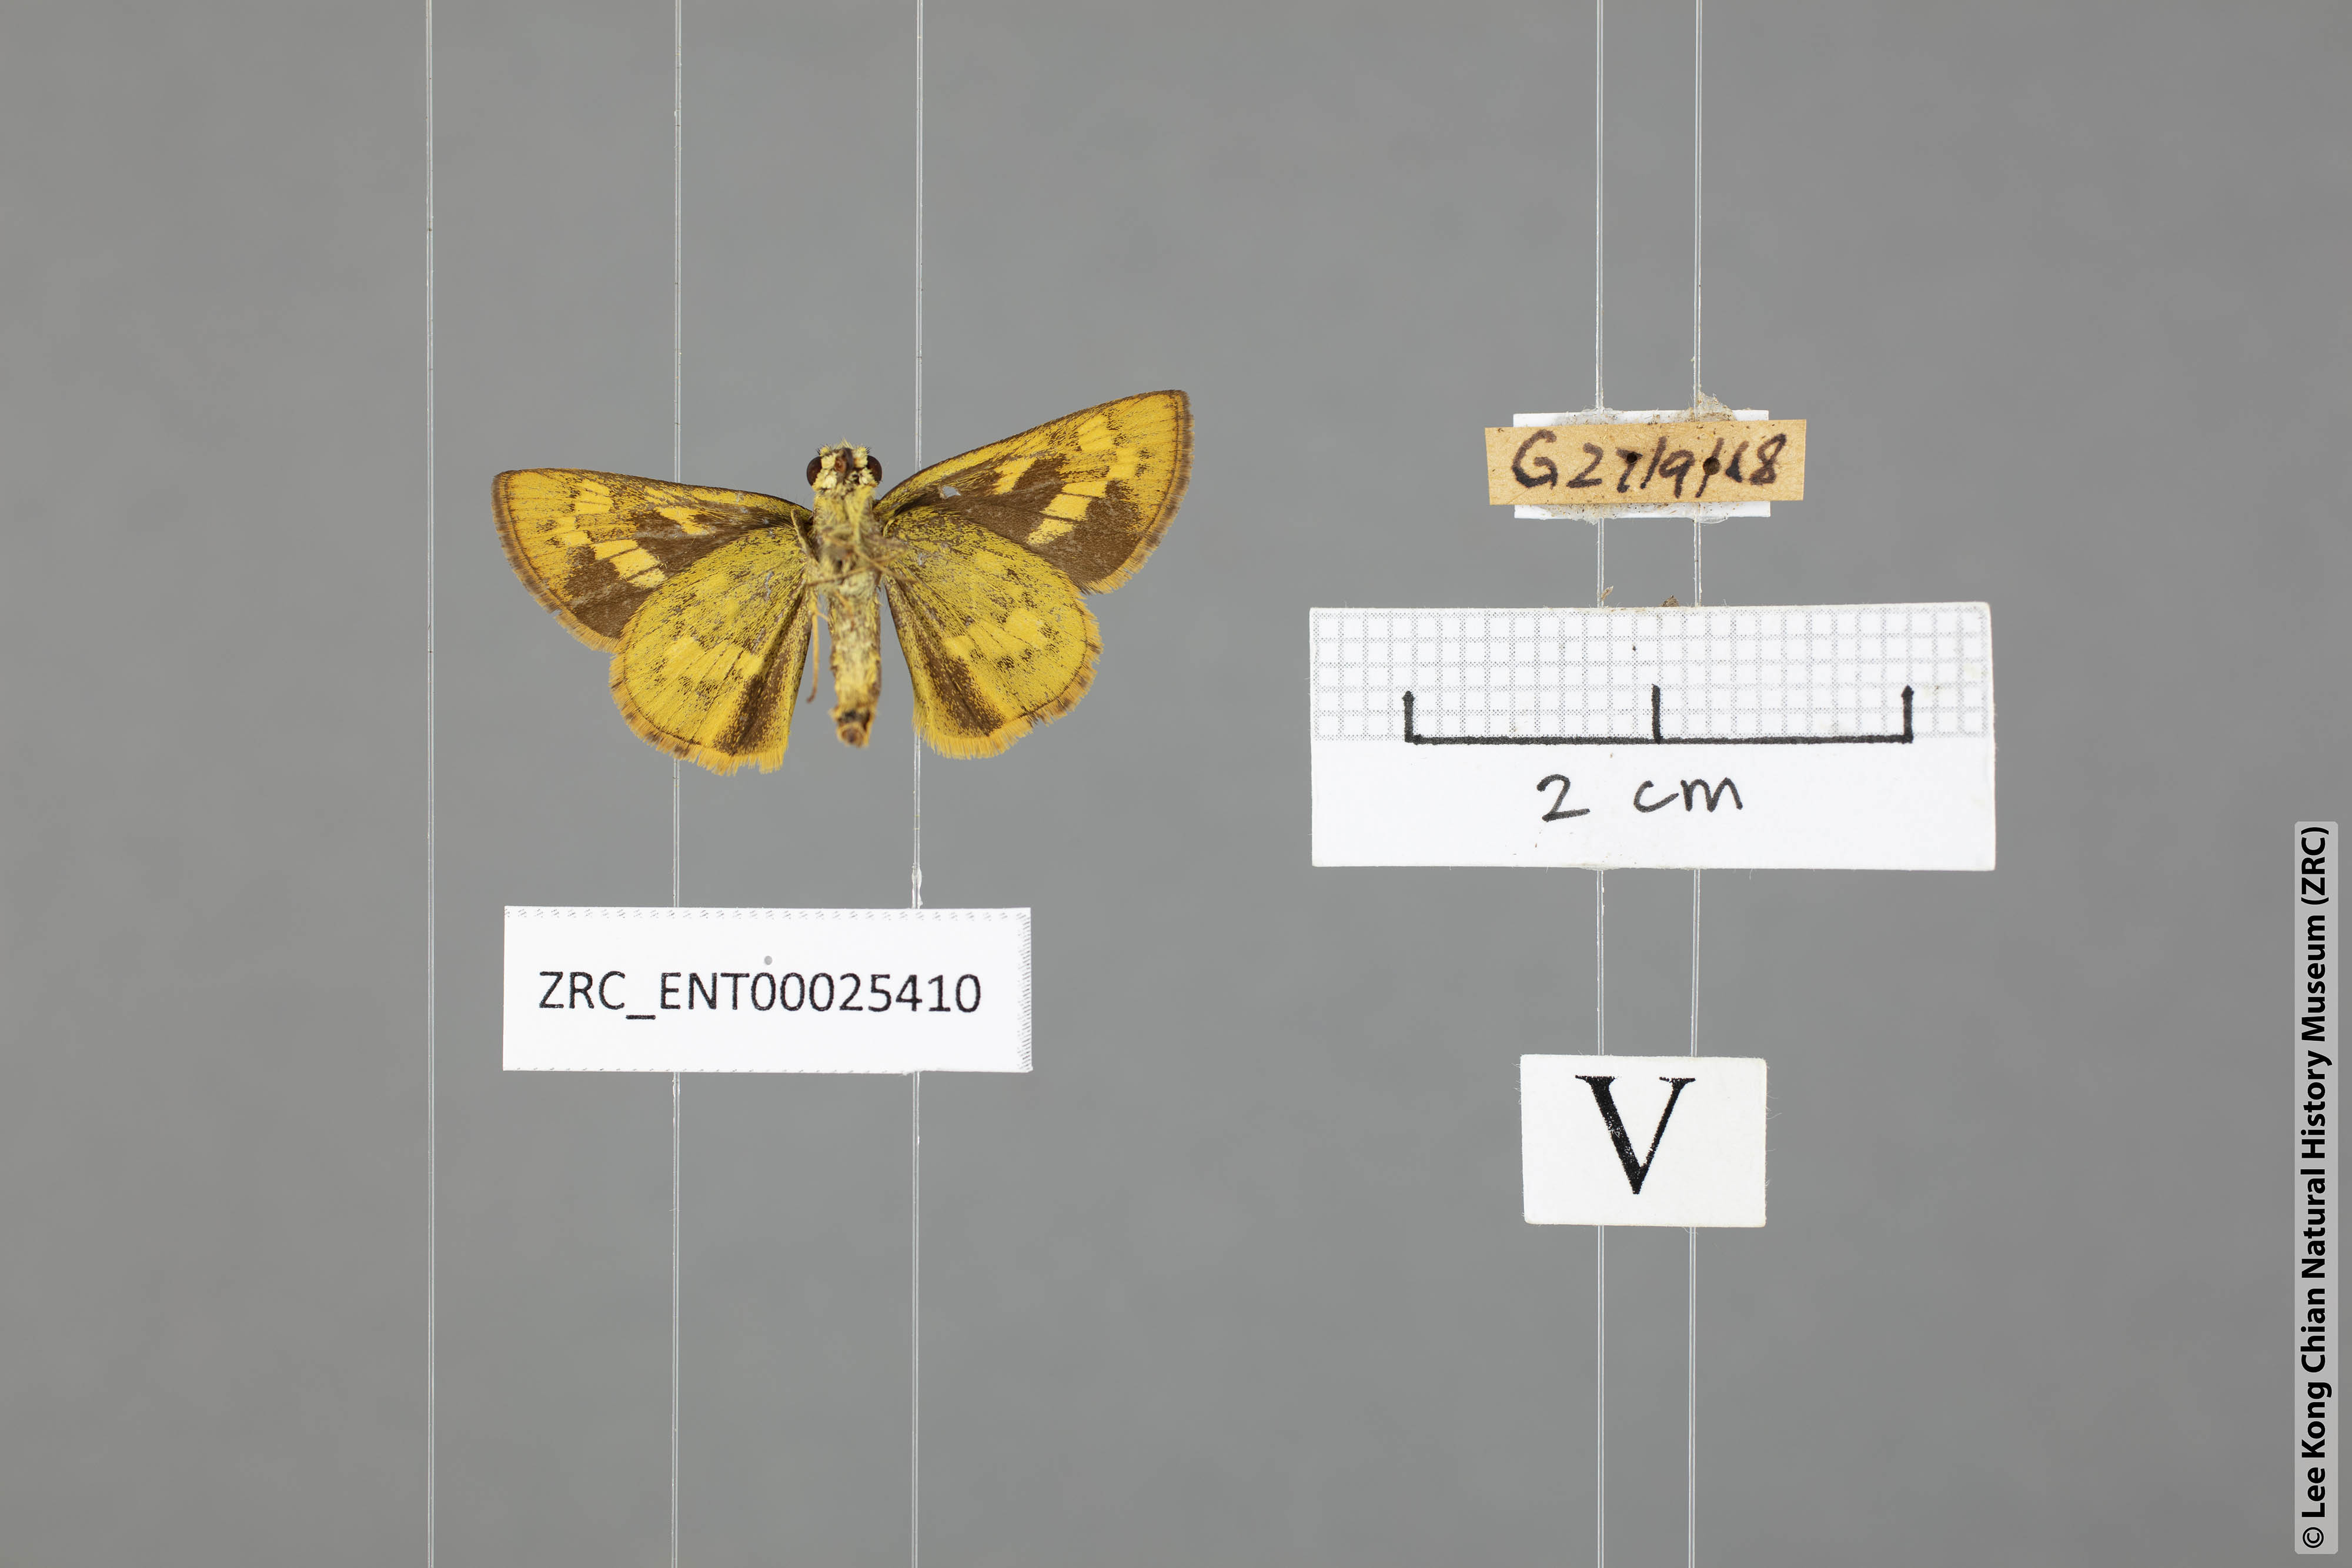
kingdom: Animalia
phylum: Arthropoda
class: Insecta
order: Lepidoptera
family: Hesperiidae
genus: Potanthus
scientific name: Potanthus lydia
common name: Lydia dart
